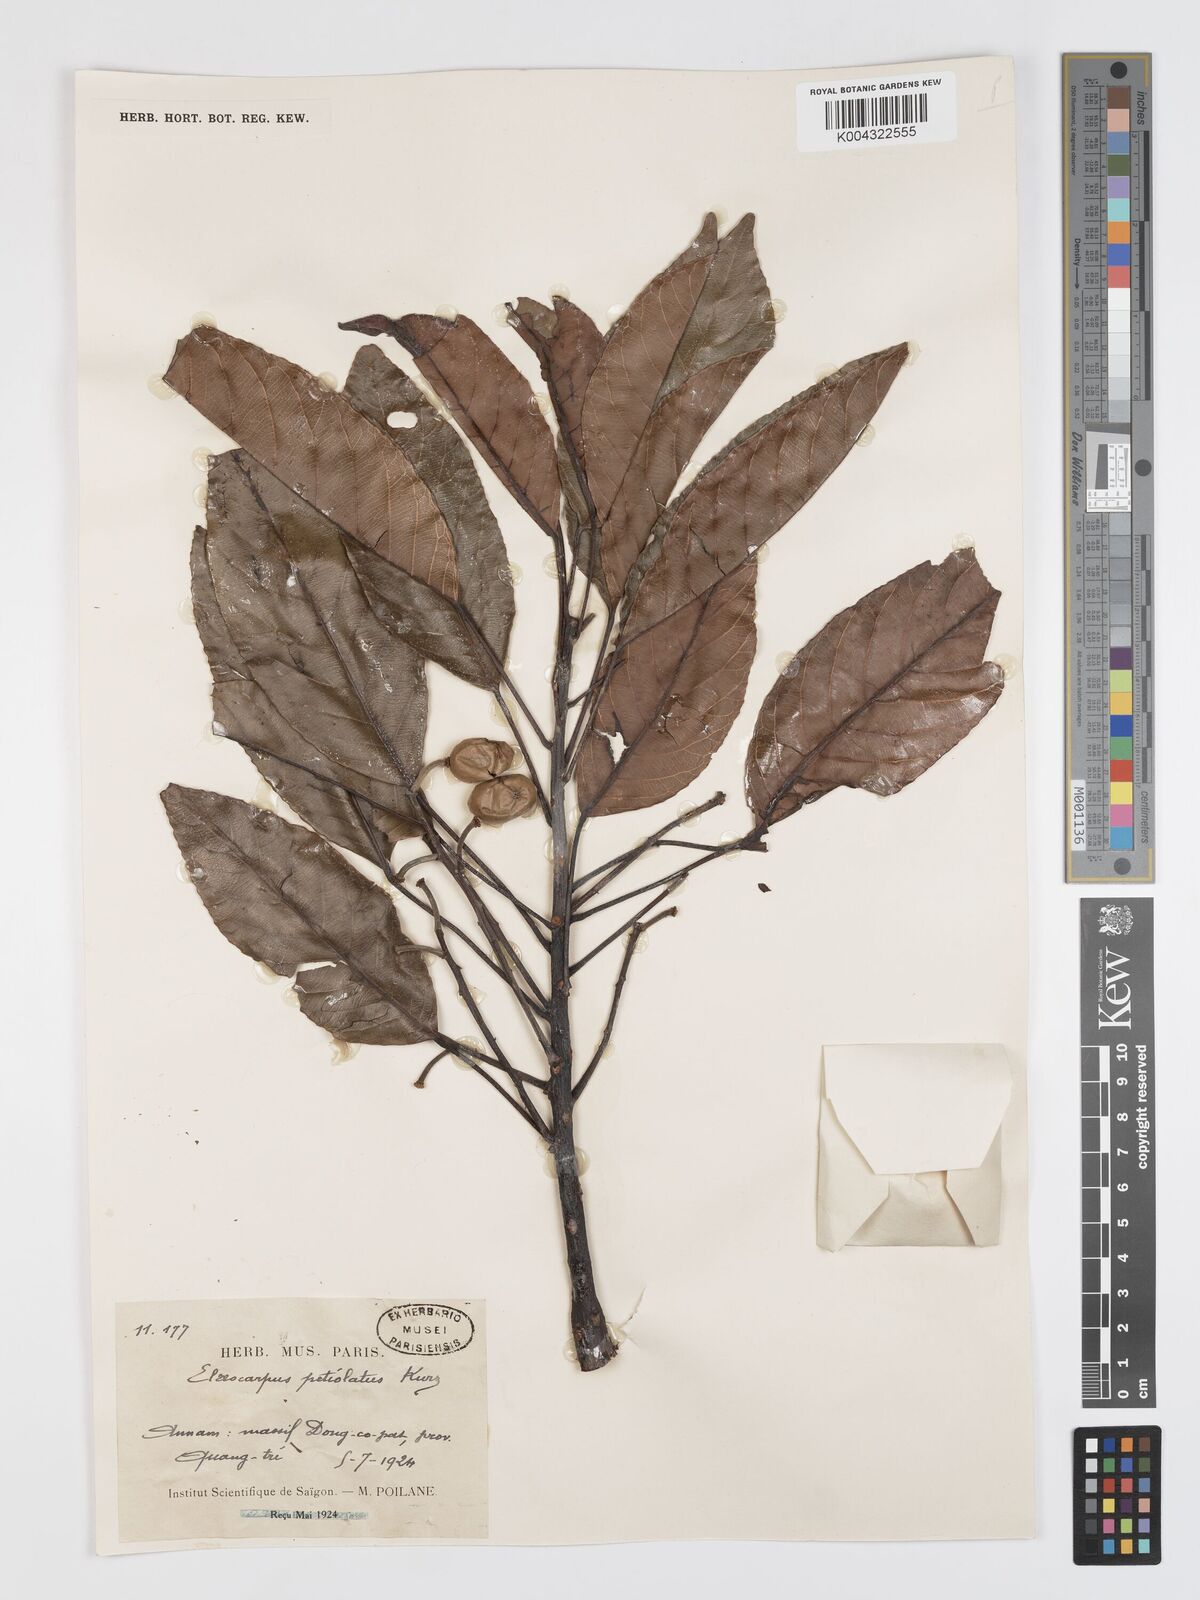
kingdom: Plantae
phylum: Tracheophyta
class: Magnoliopsida
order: Oxalidales
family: Elaeocarpaceae
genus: Elaeocarpus
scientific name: Elaeocarpus petiolatus
